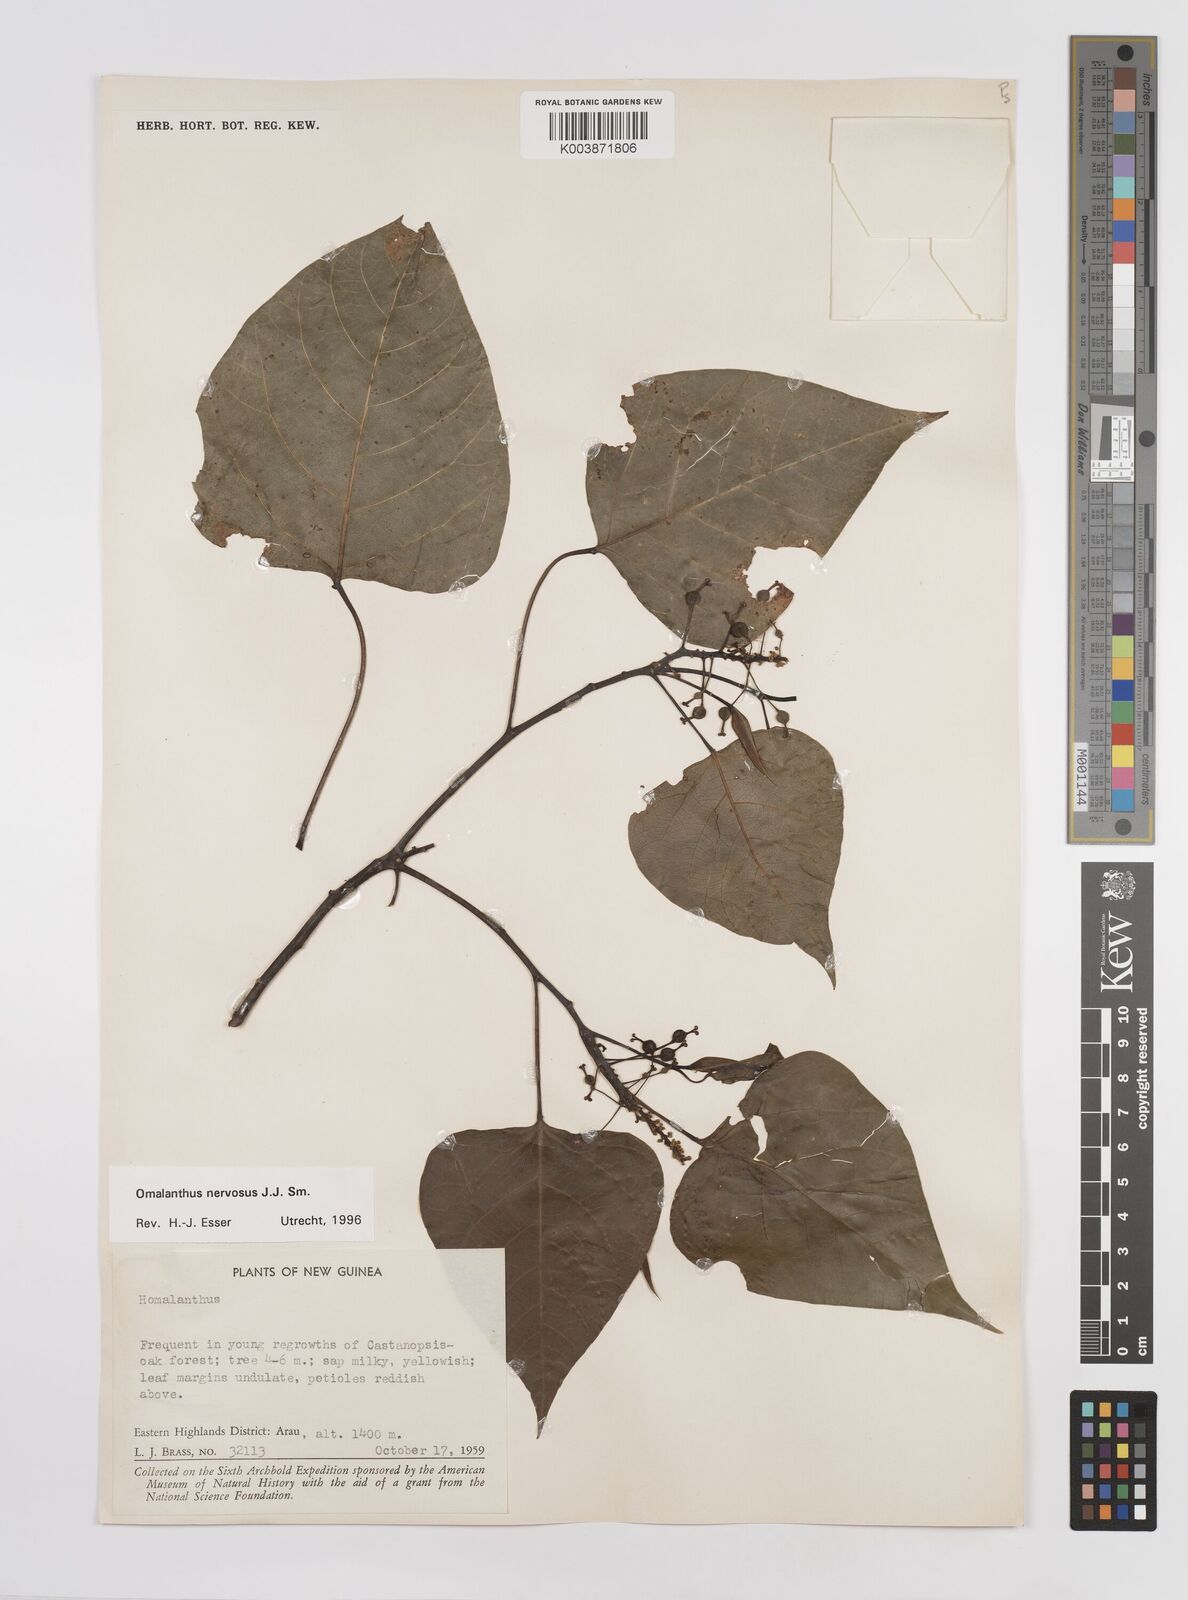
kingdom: Plantae
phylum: Tracheophyta
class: Magnoliopsida
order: Malpighiales
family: Euphorbiaceae
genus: Homalanthus
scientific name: Homalanthus nervosus
